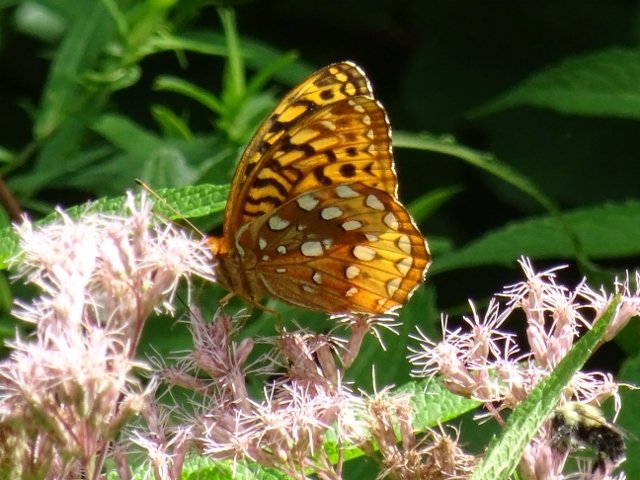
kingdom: Animalia
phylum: Arthropoda
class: Insecta
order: Lepidoptera
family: Nymphalidae
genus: Speyeria
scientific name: Speyeria cybele
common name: Great Spangled Fritillary
